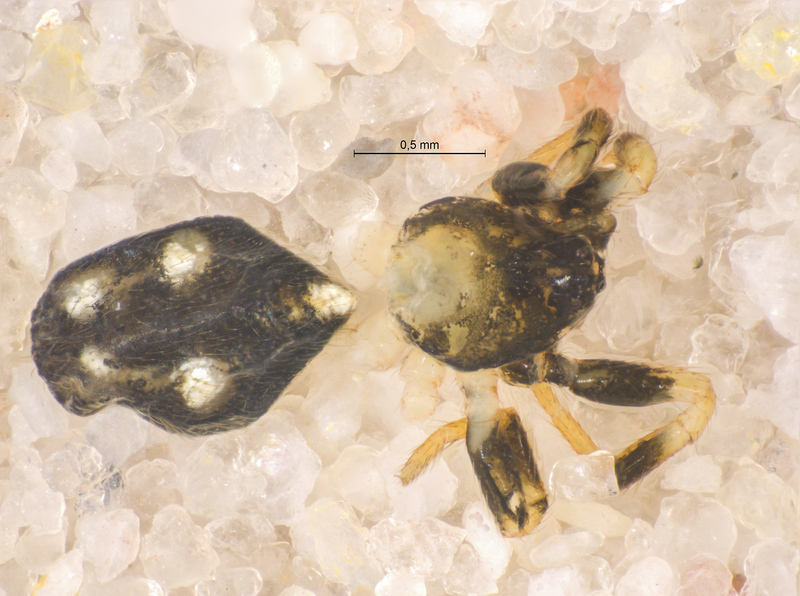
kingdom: Animalia
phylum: Arthropoda
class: Arachnida
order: Araneae
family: Theridiidae
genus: Euryopis
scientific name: Euryopis quinqueguttata
